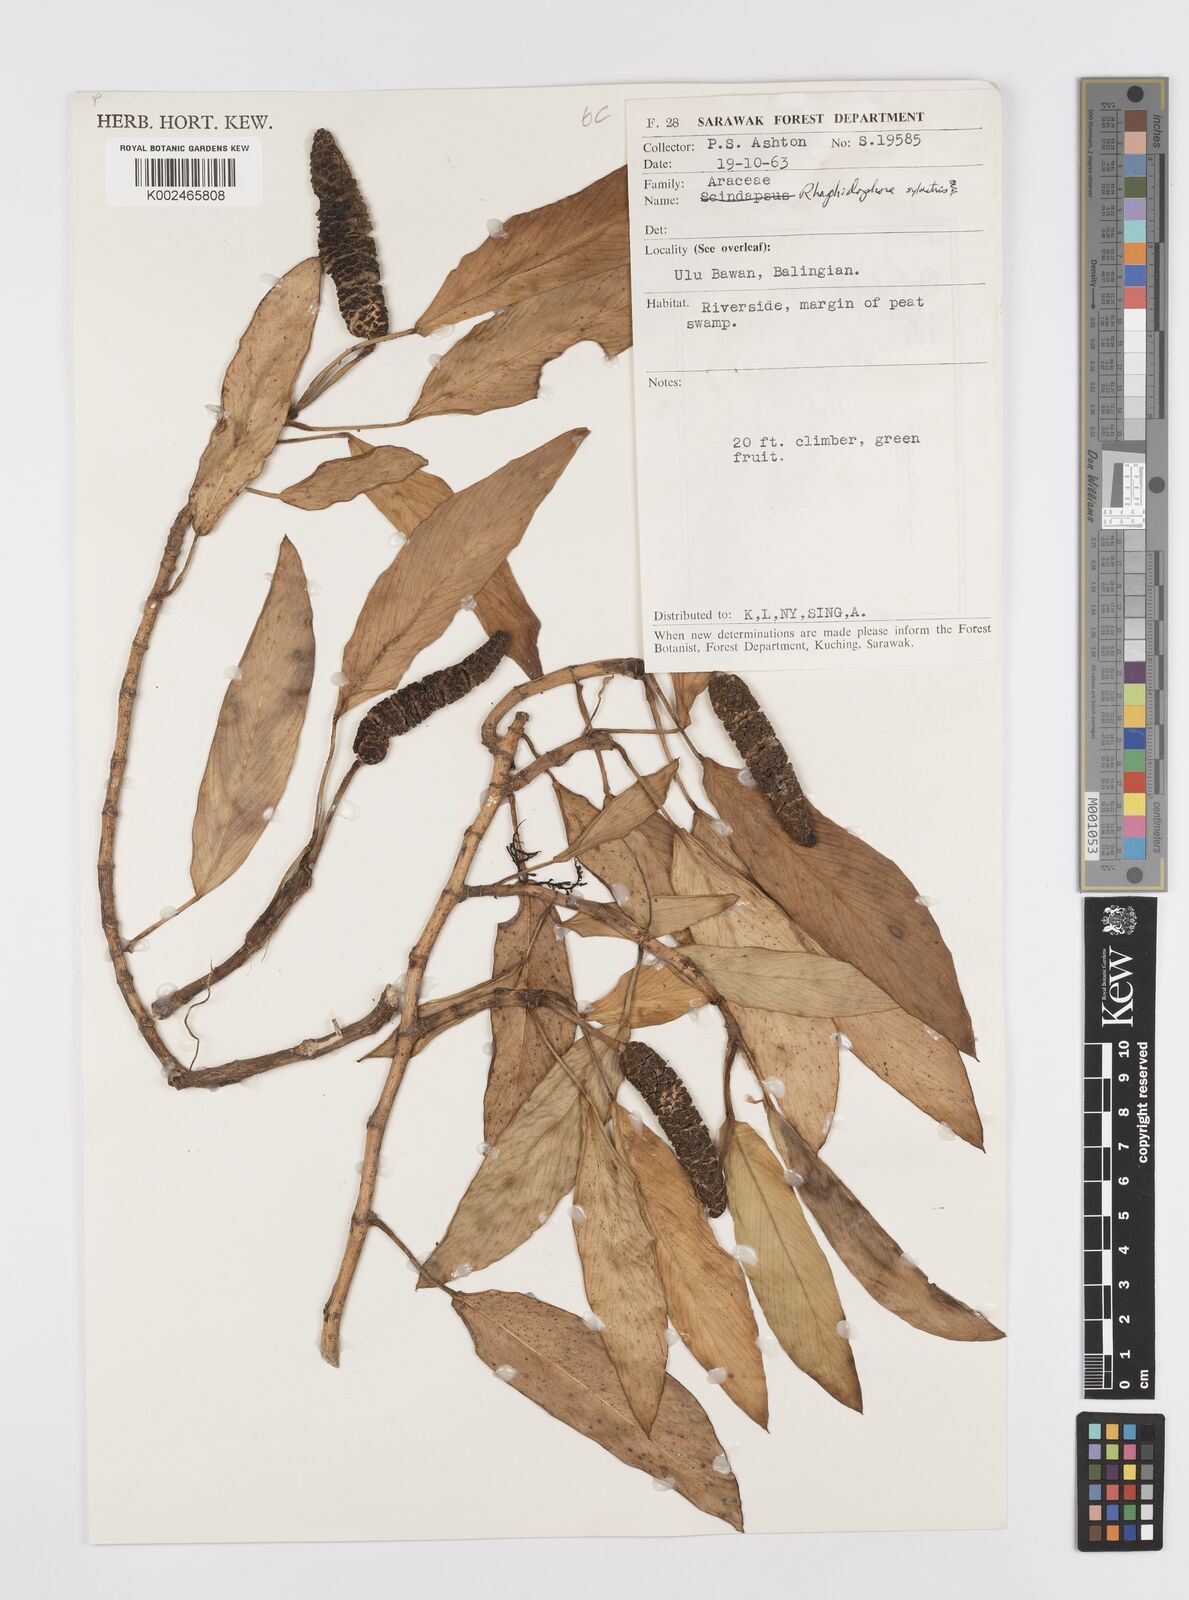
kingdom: Plantae
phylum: Tracheophyta
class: Liliopsida
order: Alismatales
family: Araceae
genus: Rhaphidophora
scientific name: Rhaphidophora sylvestris
